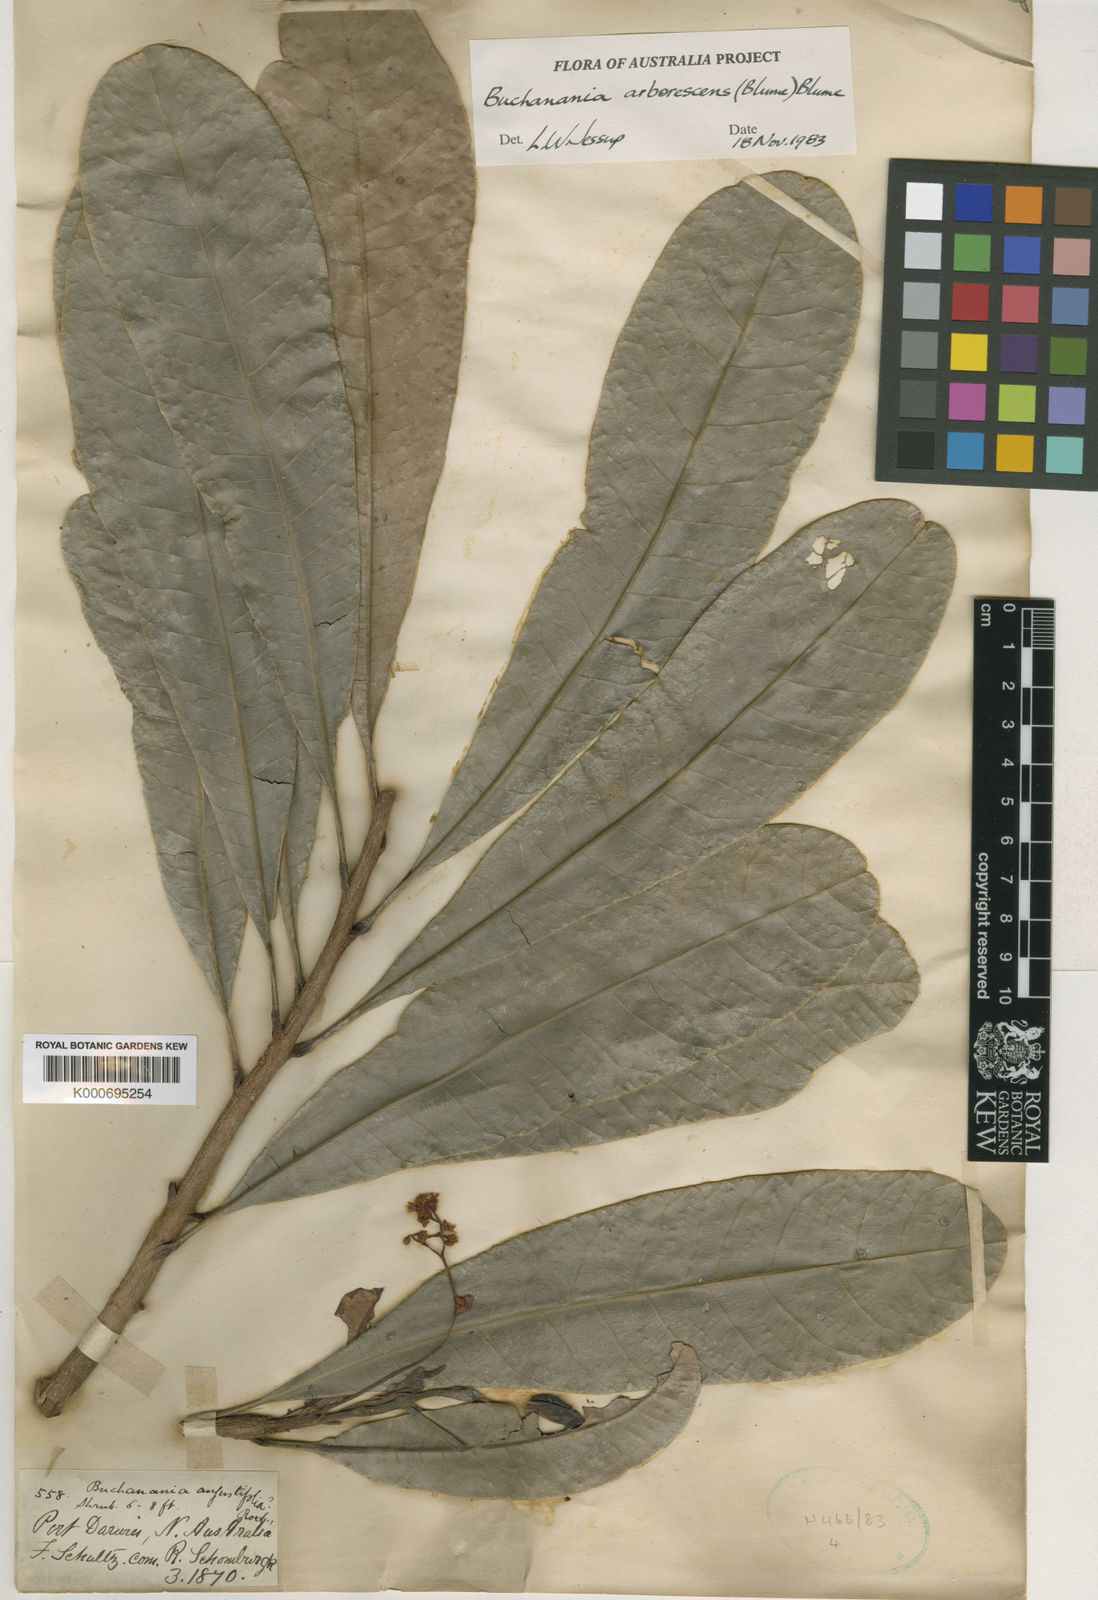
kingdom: Plantae
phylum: Tracheophyta
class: Magnoliopsida
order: Sapindales
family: Anacardiaceae
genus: Buchanania
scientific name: Buchanania arborescens
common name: Sparrow’s mango
